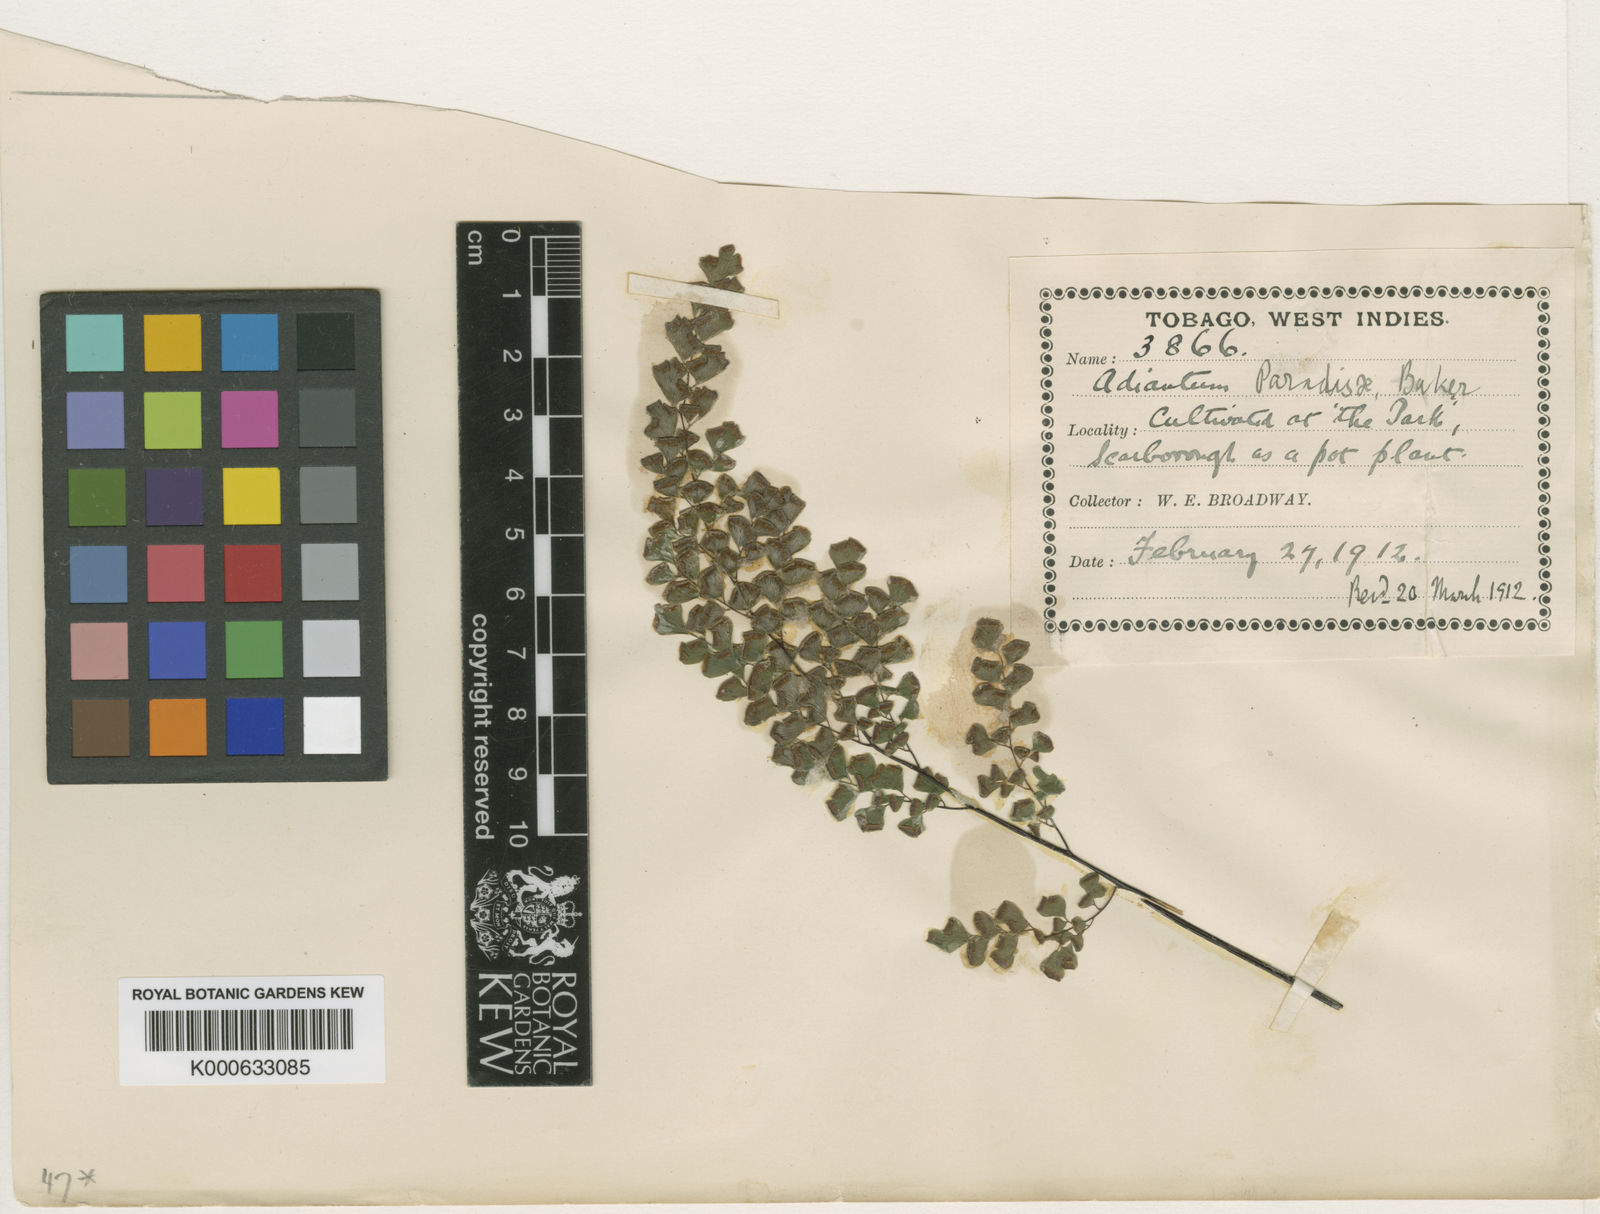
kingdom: Plantae
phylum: Tracheophyta
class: Polypodiopsida
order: Polypodiales
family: Pteridaceae
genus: Adiantum
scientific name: Adiantum capillus-veneris
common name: Maidenhair fern
